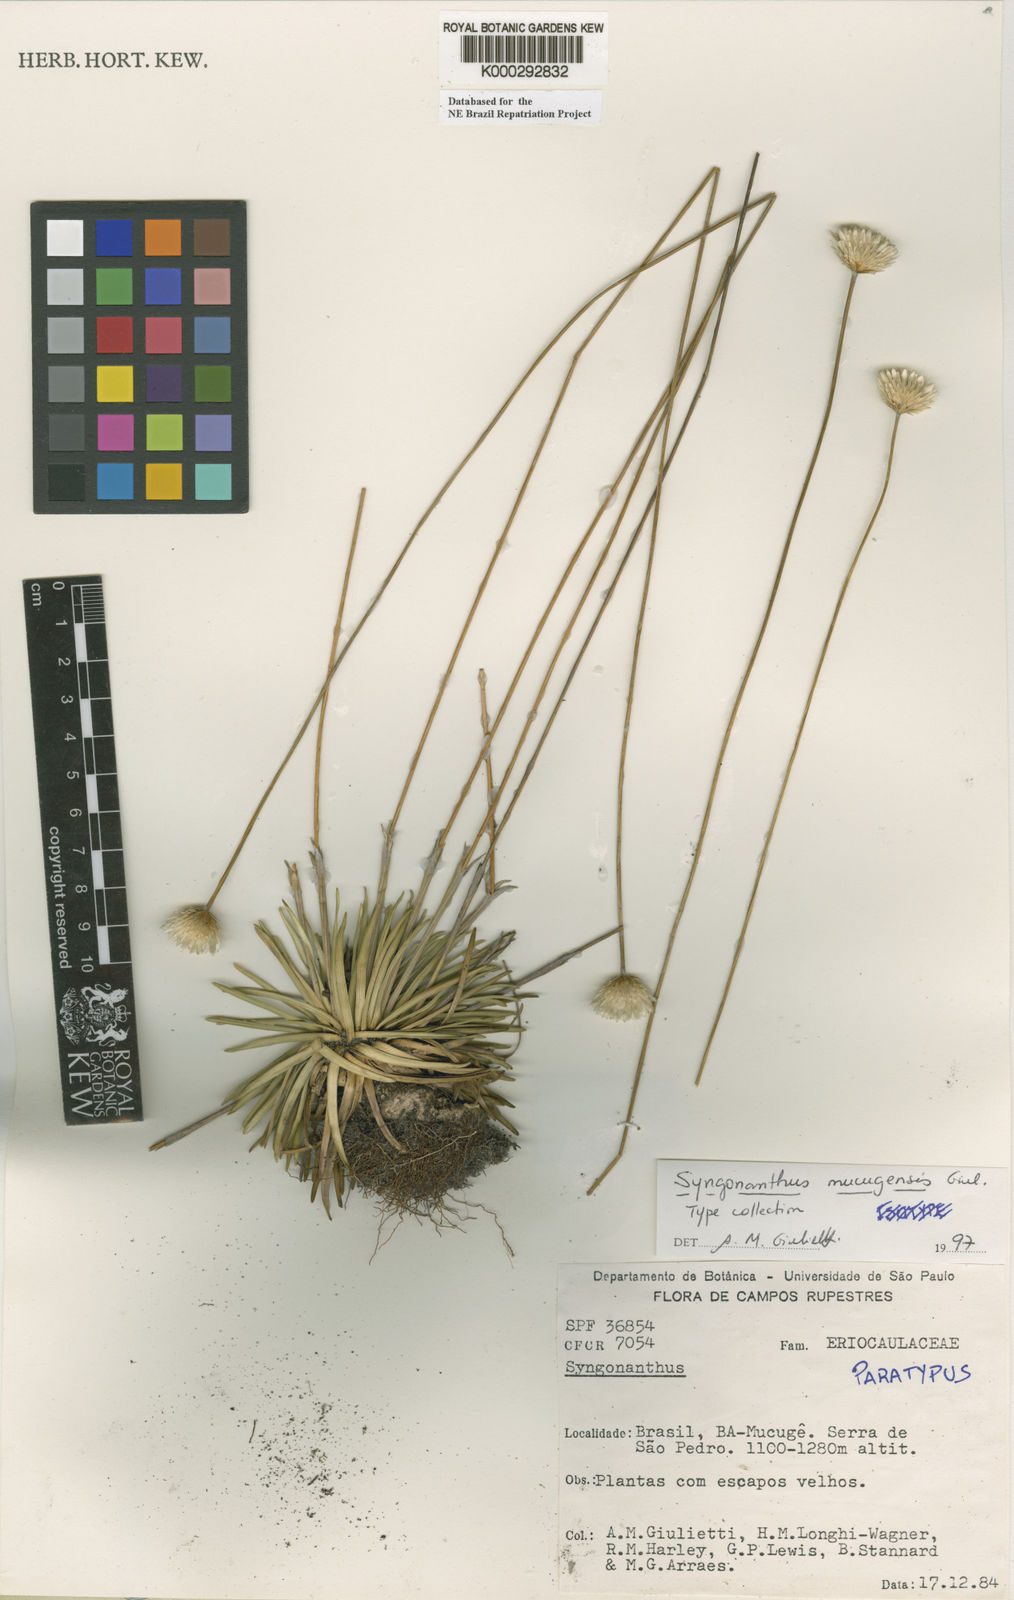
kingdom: Plantae
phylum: Tracheophyta
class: Liliopsida
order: Poales
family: Eriocaulaceae
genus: Comanthera
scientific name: Comanthera mucugensis
